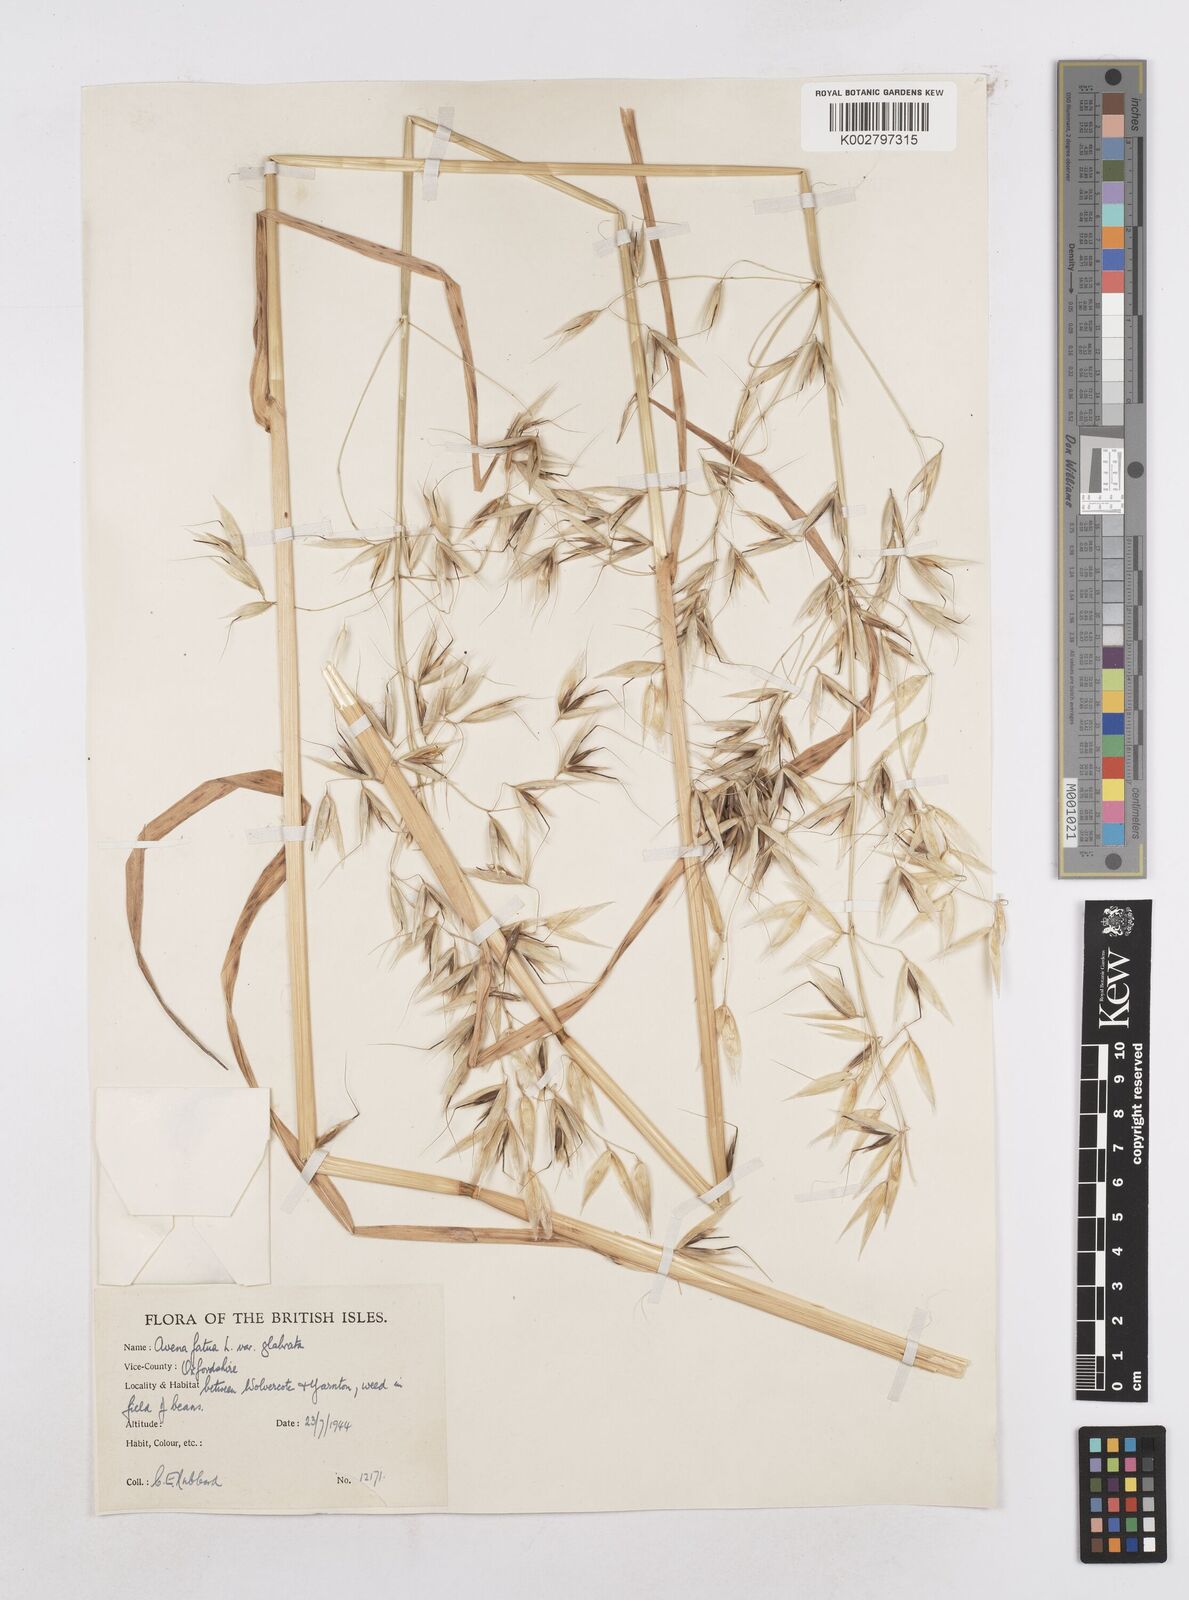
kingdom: Plantae
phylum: Tracheophyta
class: Liliopsida
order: Poales
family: Poaceae
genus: Avena
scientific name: Avena fatua
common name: Wild oat
